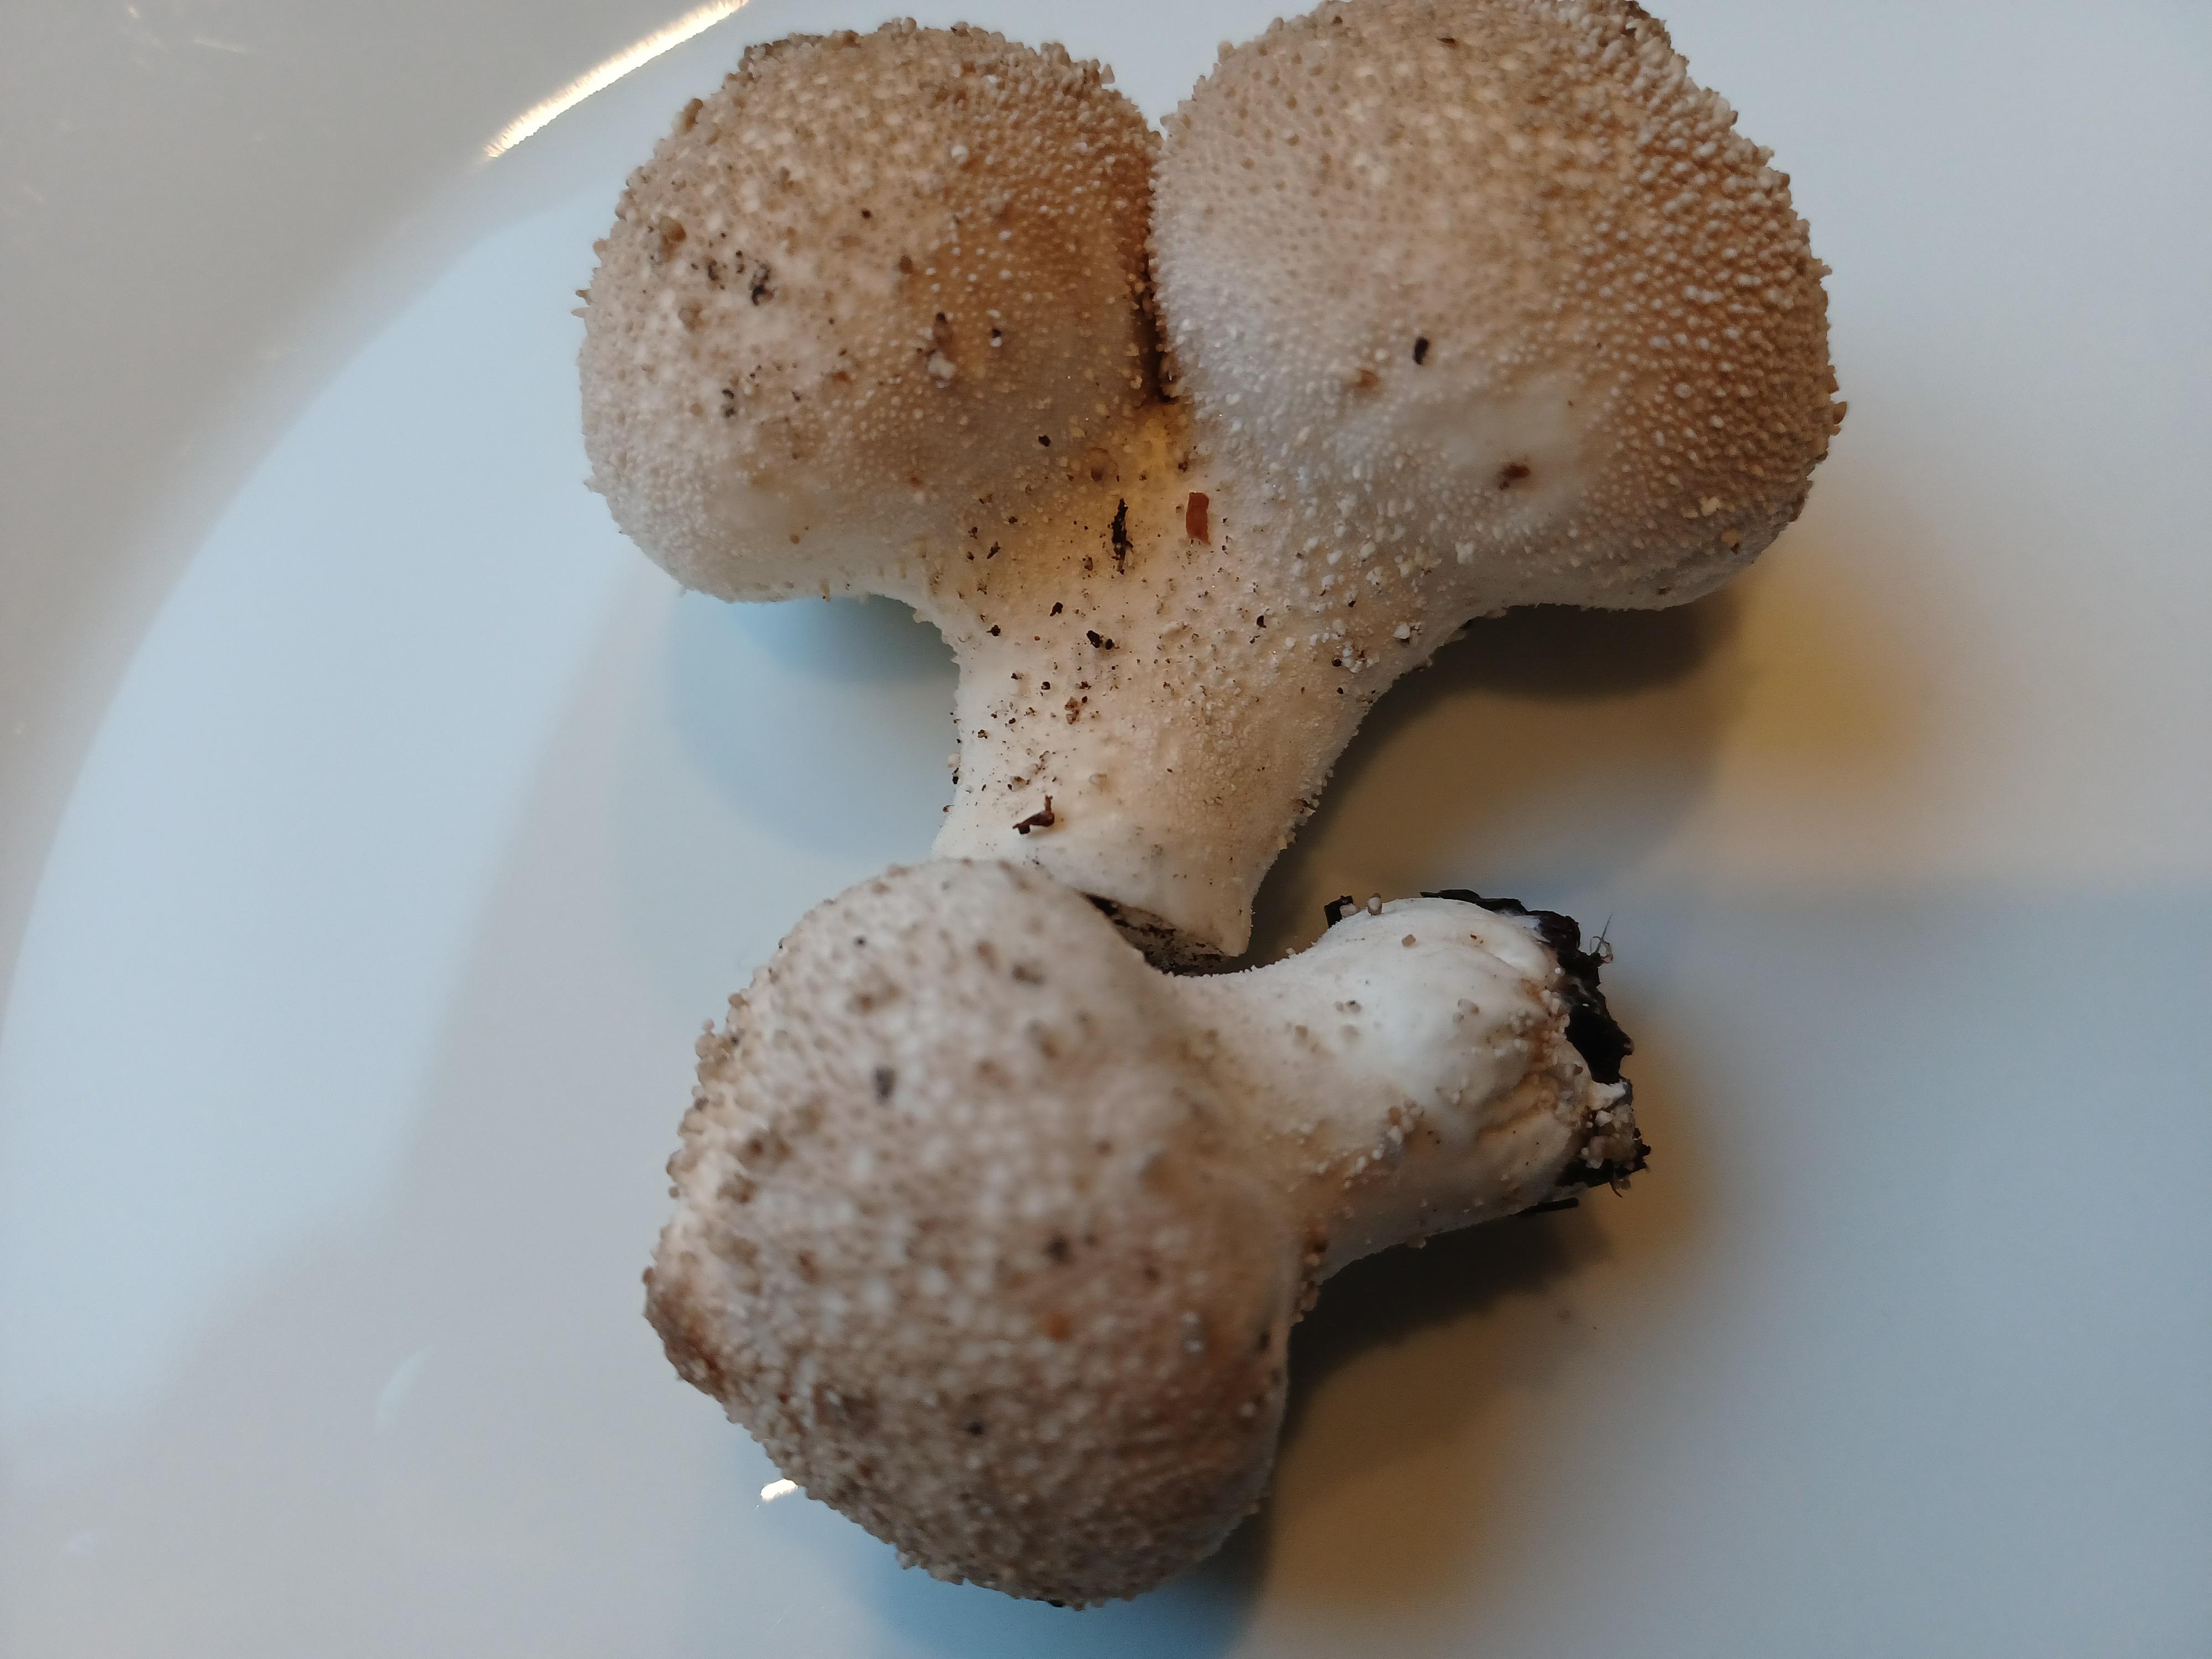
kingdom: Fungi
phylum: Basidiomycota
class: Agaricomycetes
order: Agaricales
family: Lycoperdaceae
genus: Lycoperdon
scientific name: Lycoperdon perlatum
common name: krystal-støvbold
